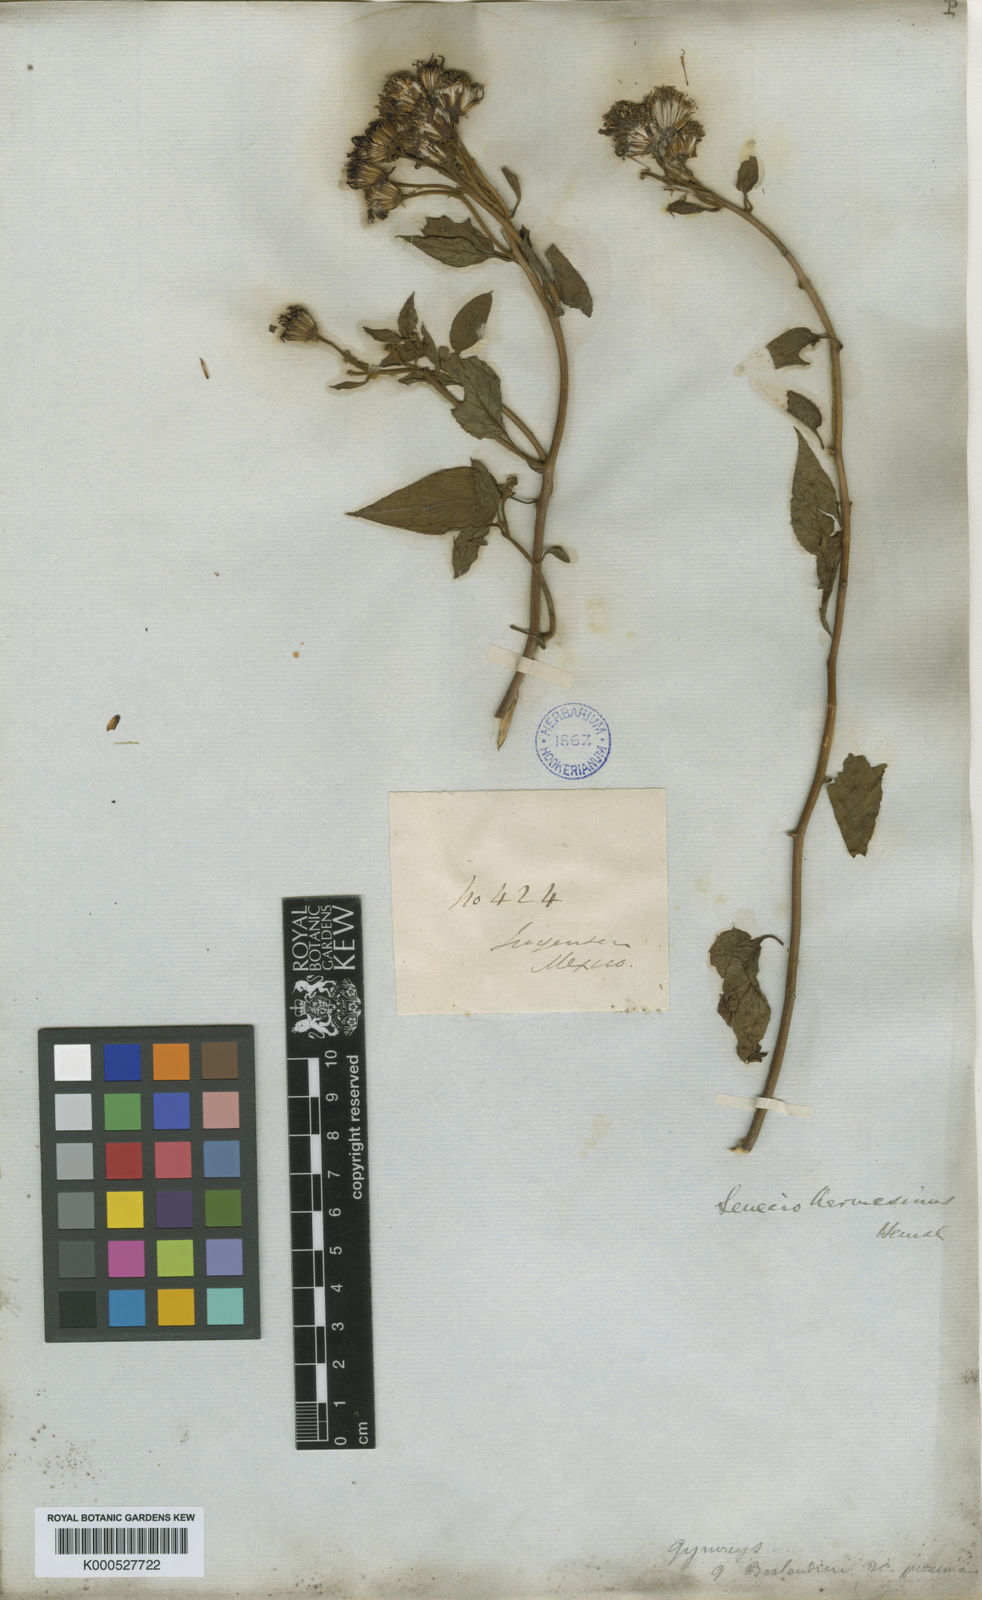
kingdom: Plantae
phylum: Tracheophyta
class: Magnoliopsida
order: Asterales
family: Asteraceae
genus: Pseudogynoxys
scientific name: Pseudogynoxys haenkei
